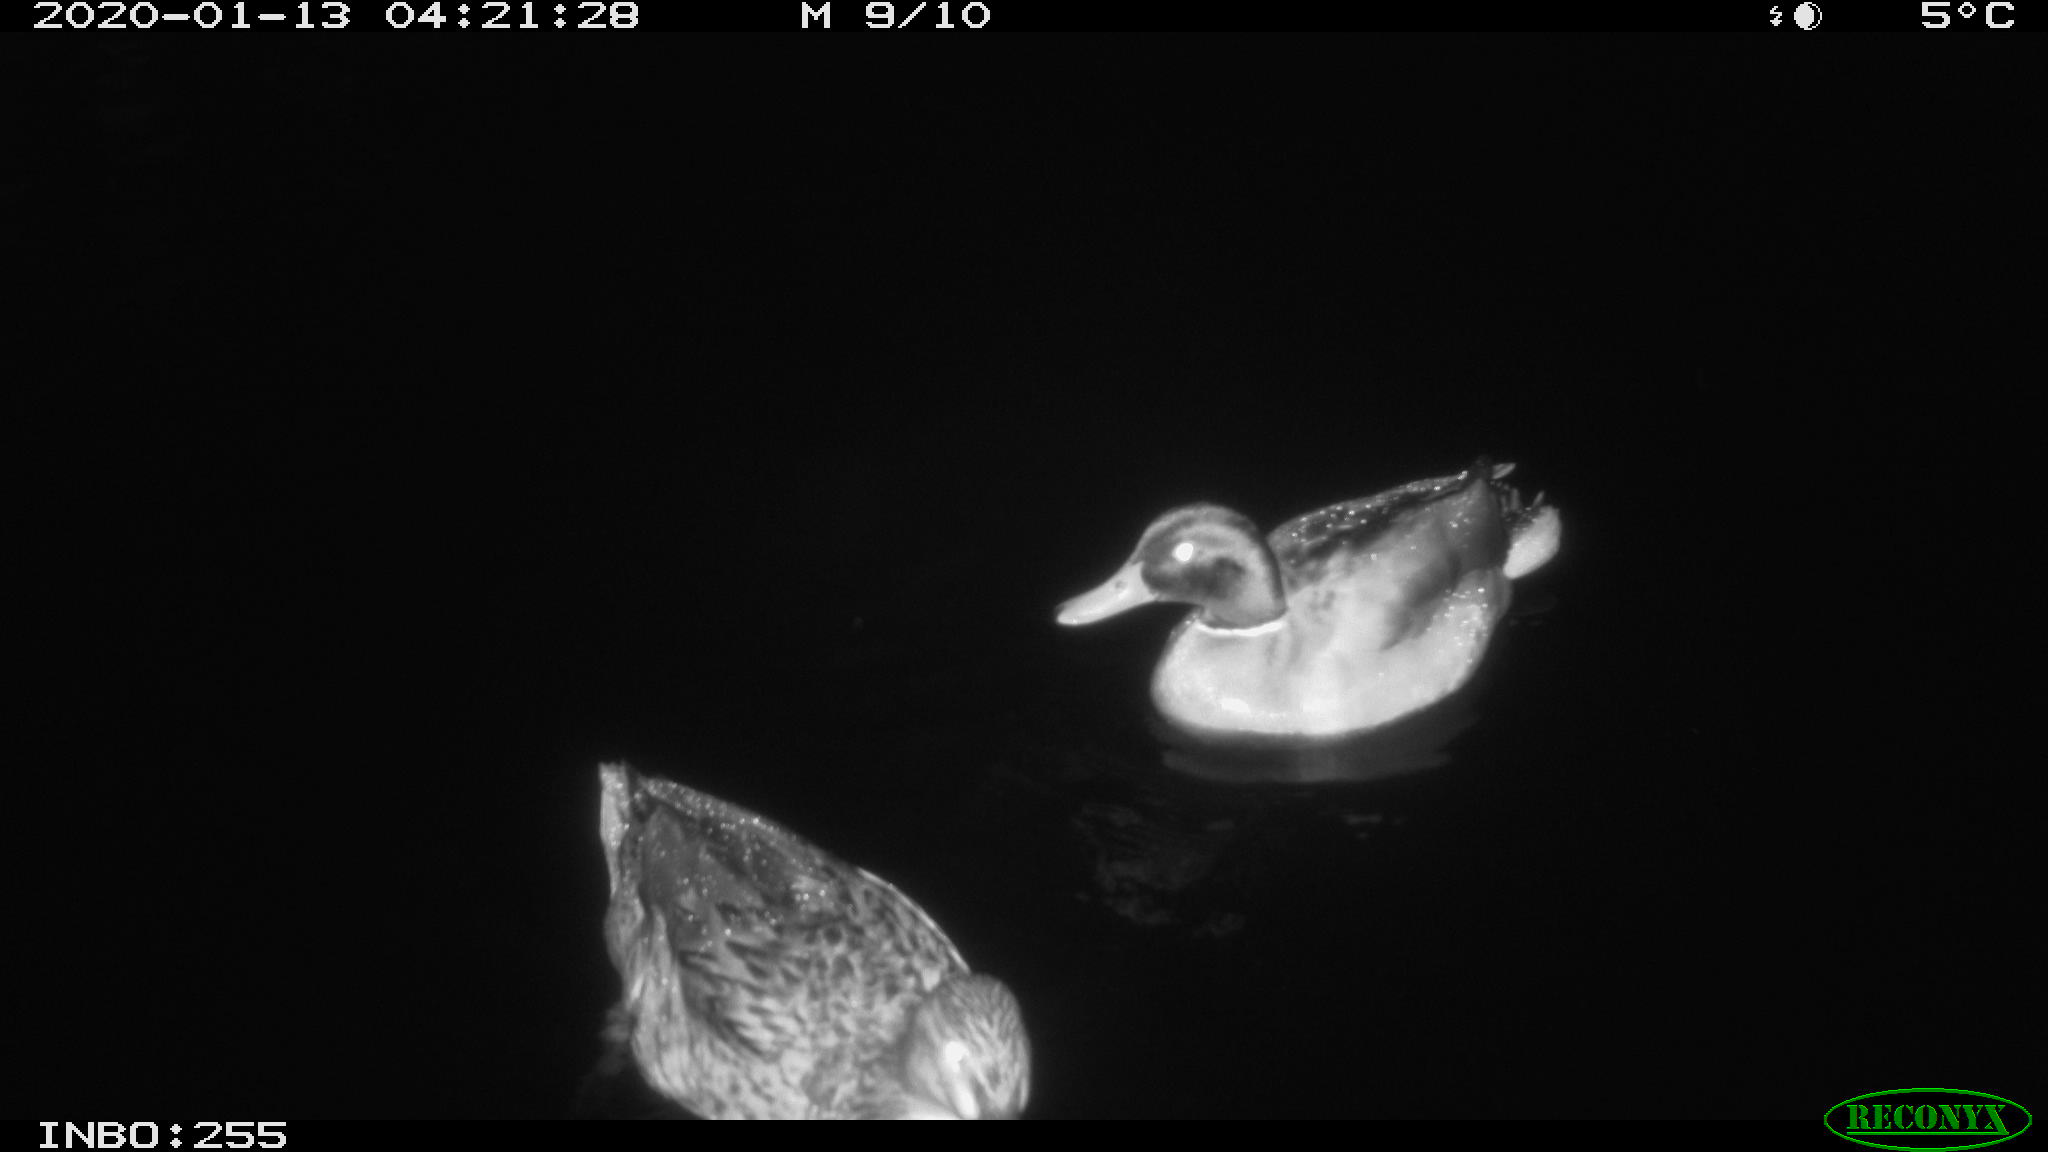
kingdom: Animalia
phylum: Chordata
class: Aves
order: Anseriformes
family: Anatidae
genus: Anas
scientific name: Anas platyrhynchos
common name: Mallard
